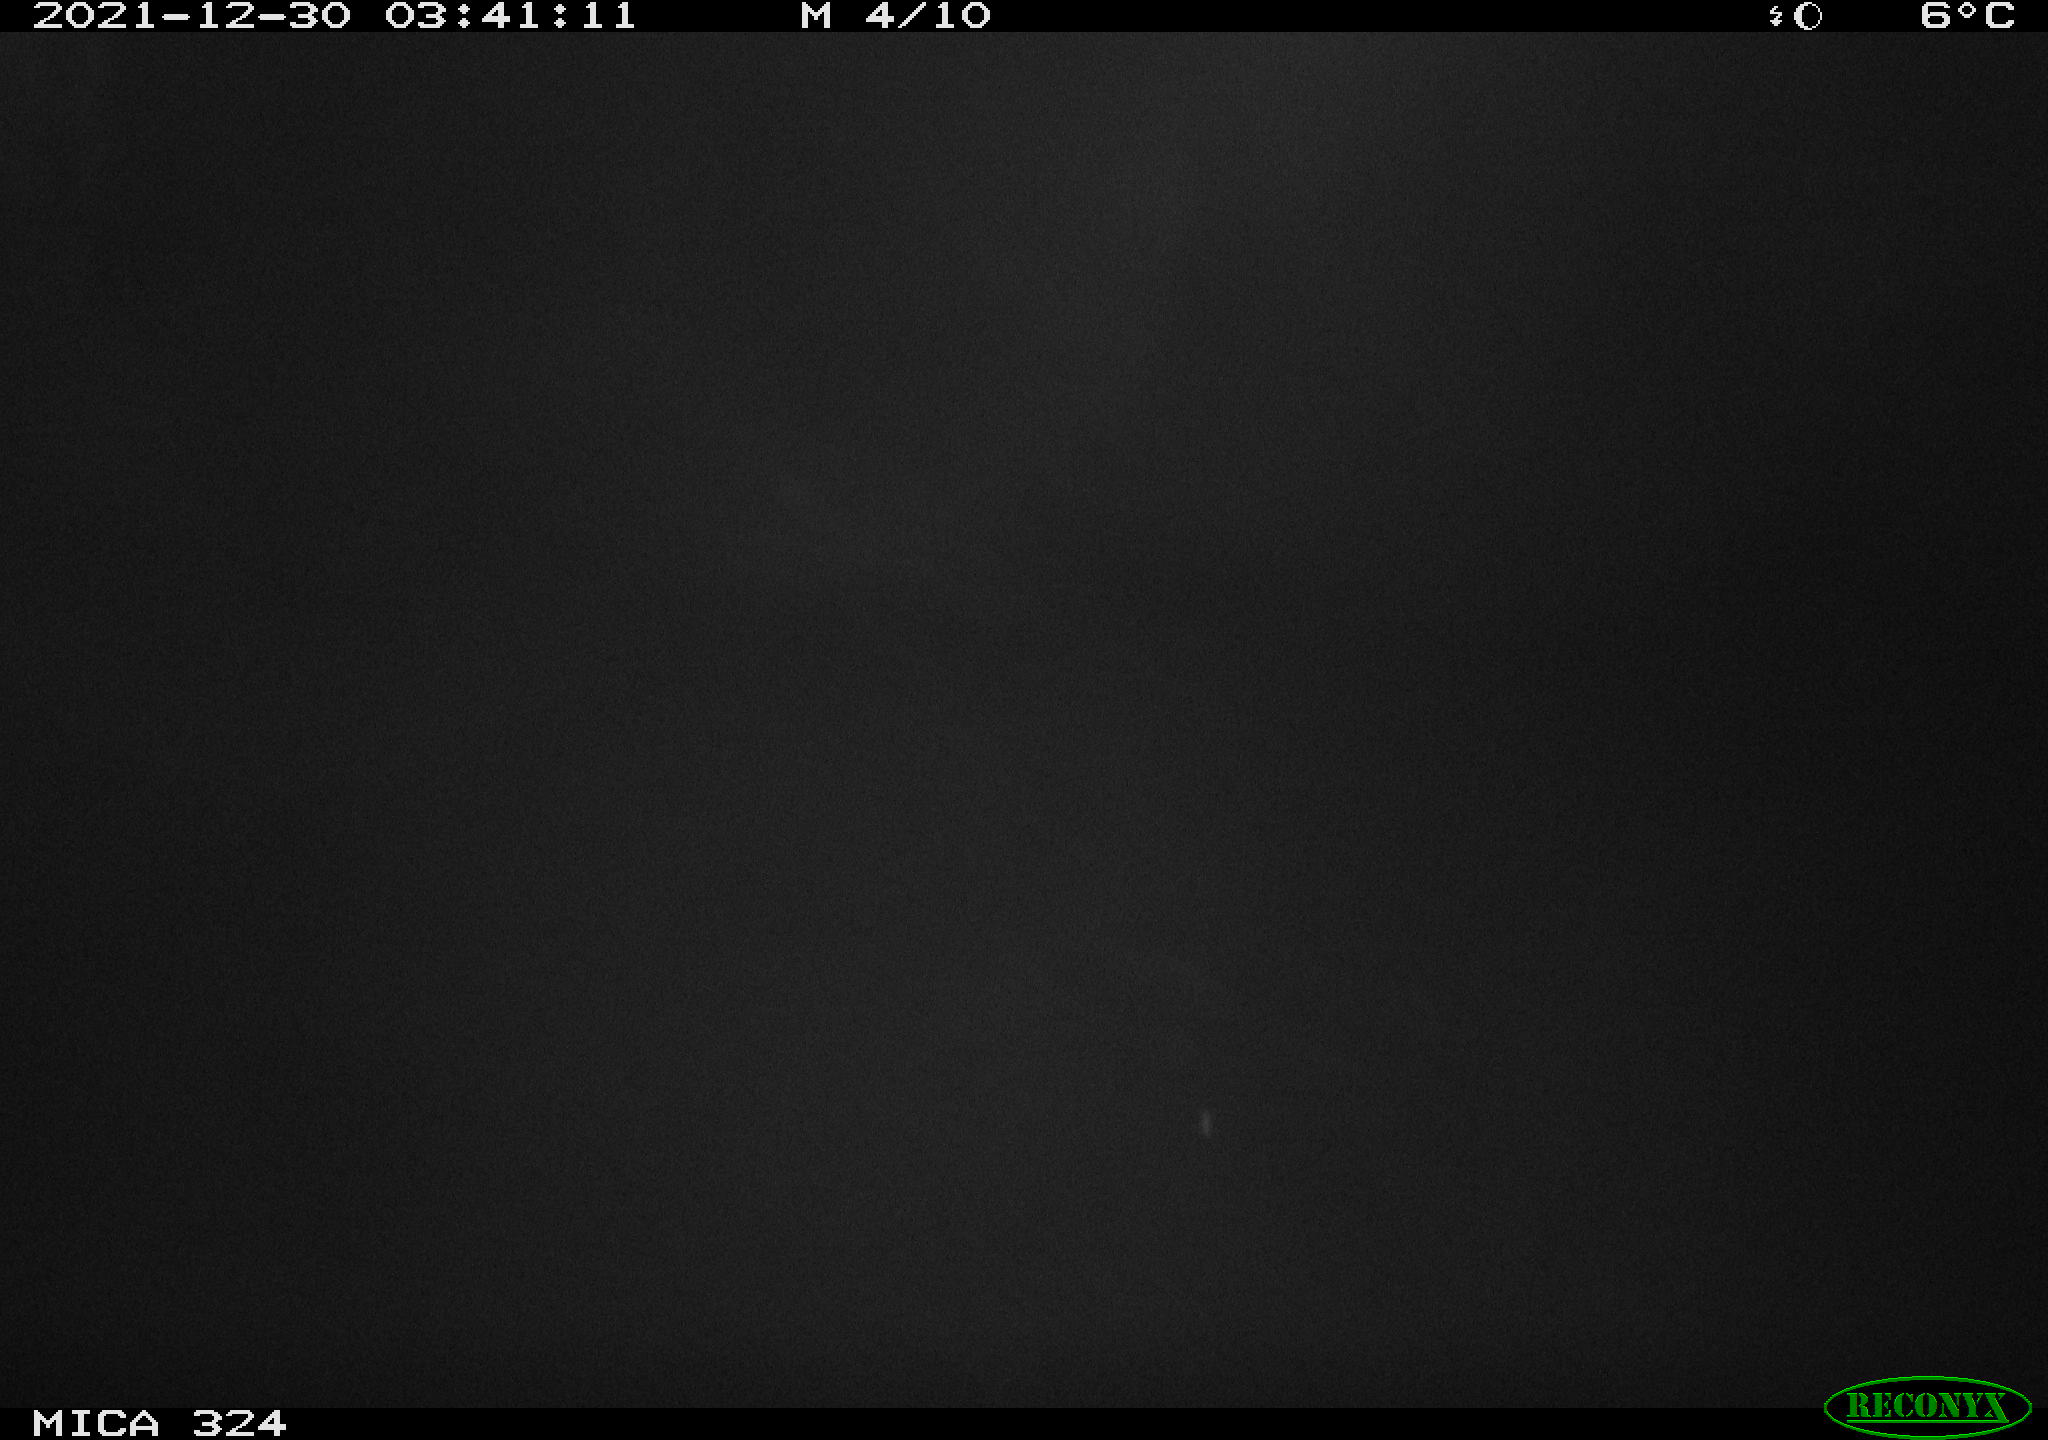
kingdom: Animalia
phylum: Chordata
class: Mammalia
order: Rodentia
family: Cricetidae
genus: Ondatra
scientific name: Ondatra zibethicus
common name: Muskrat
